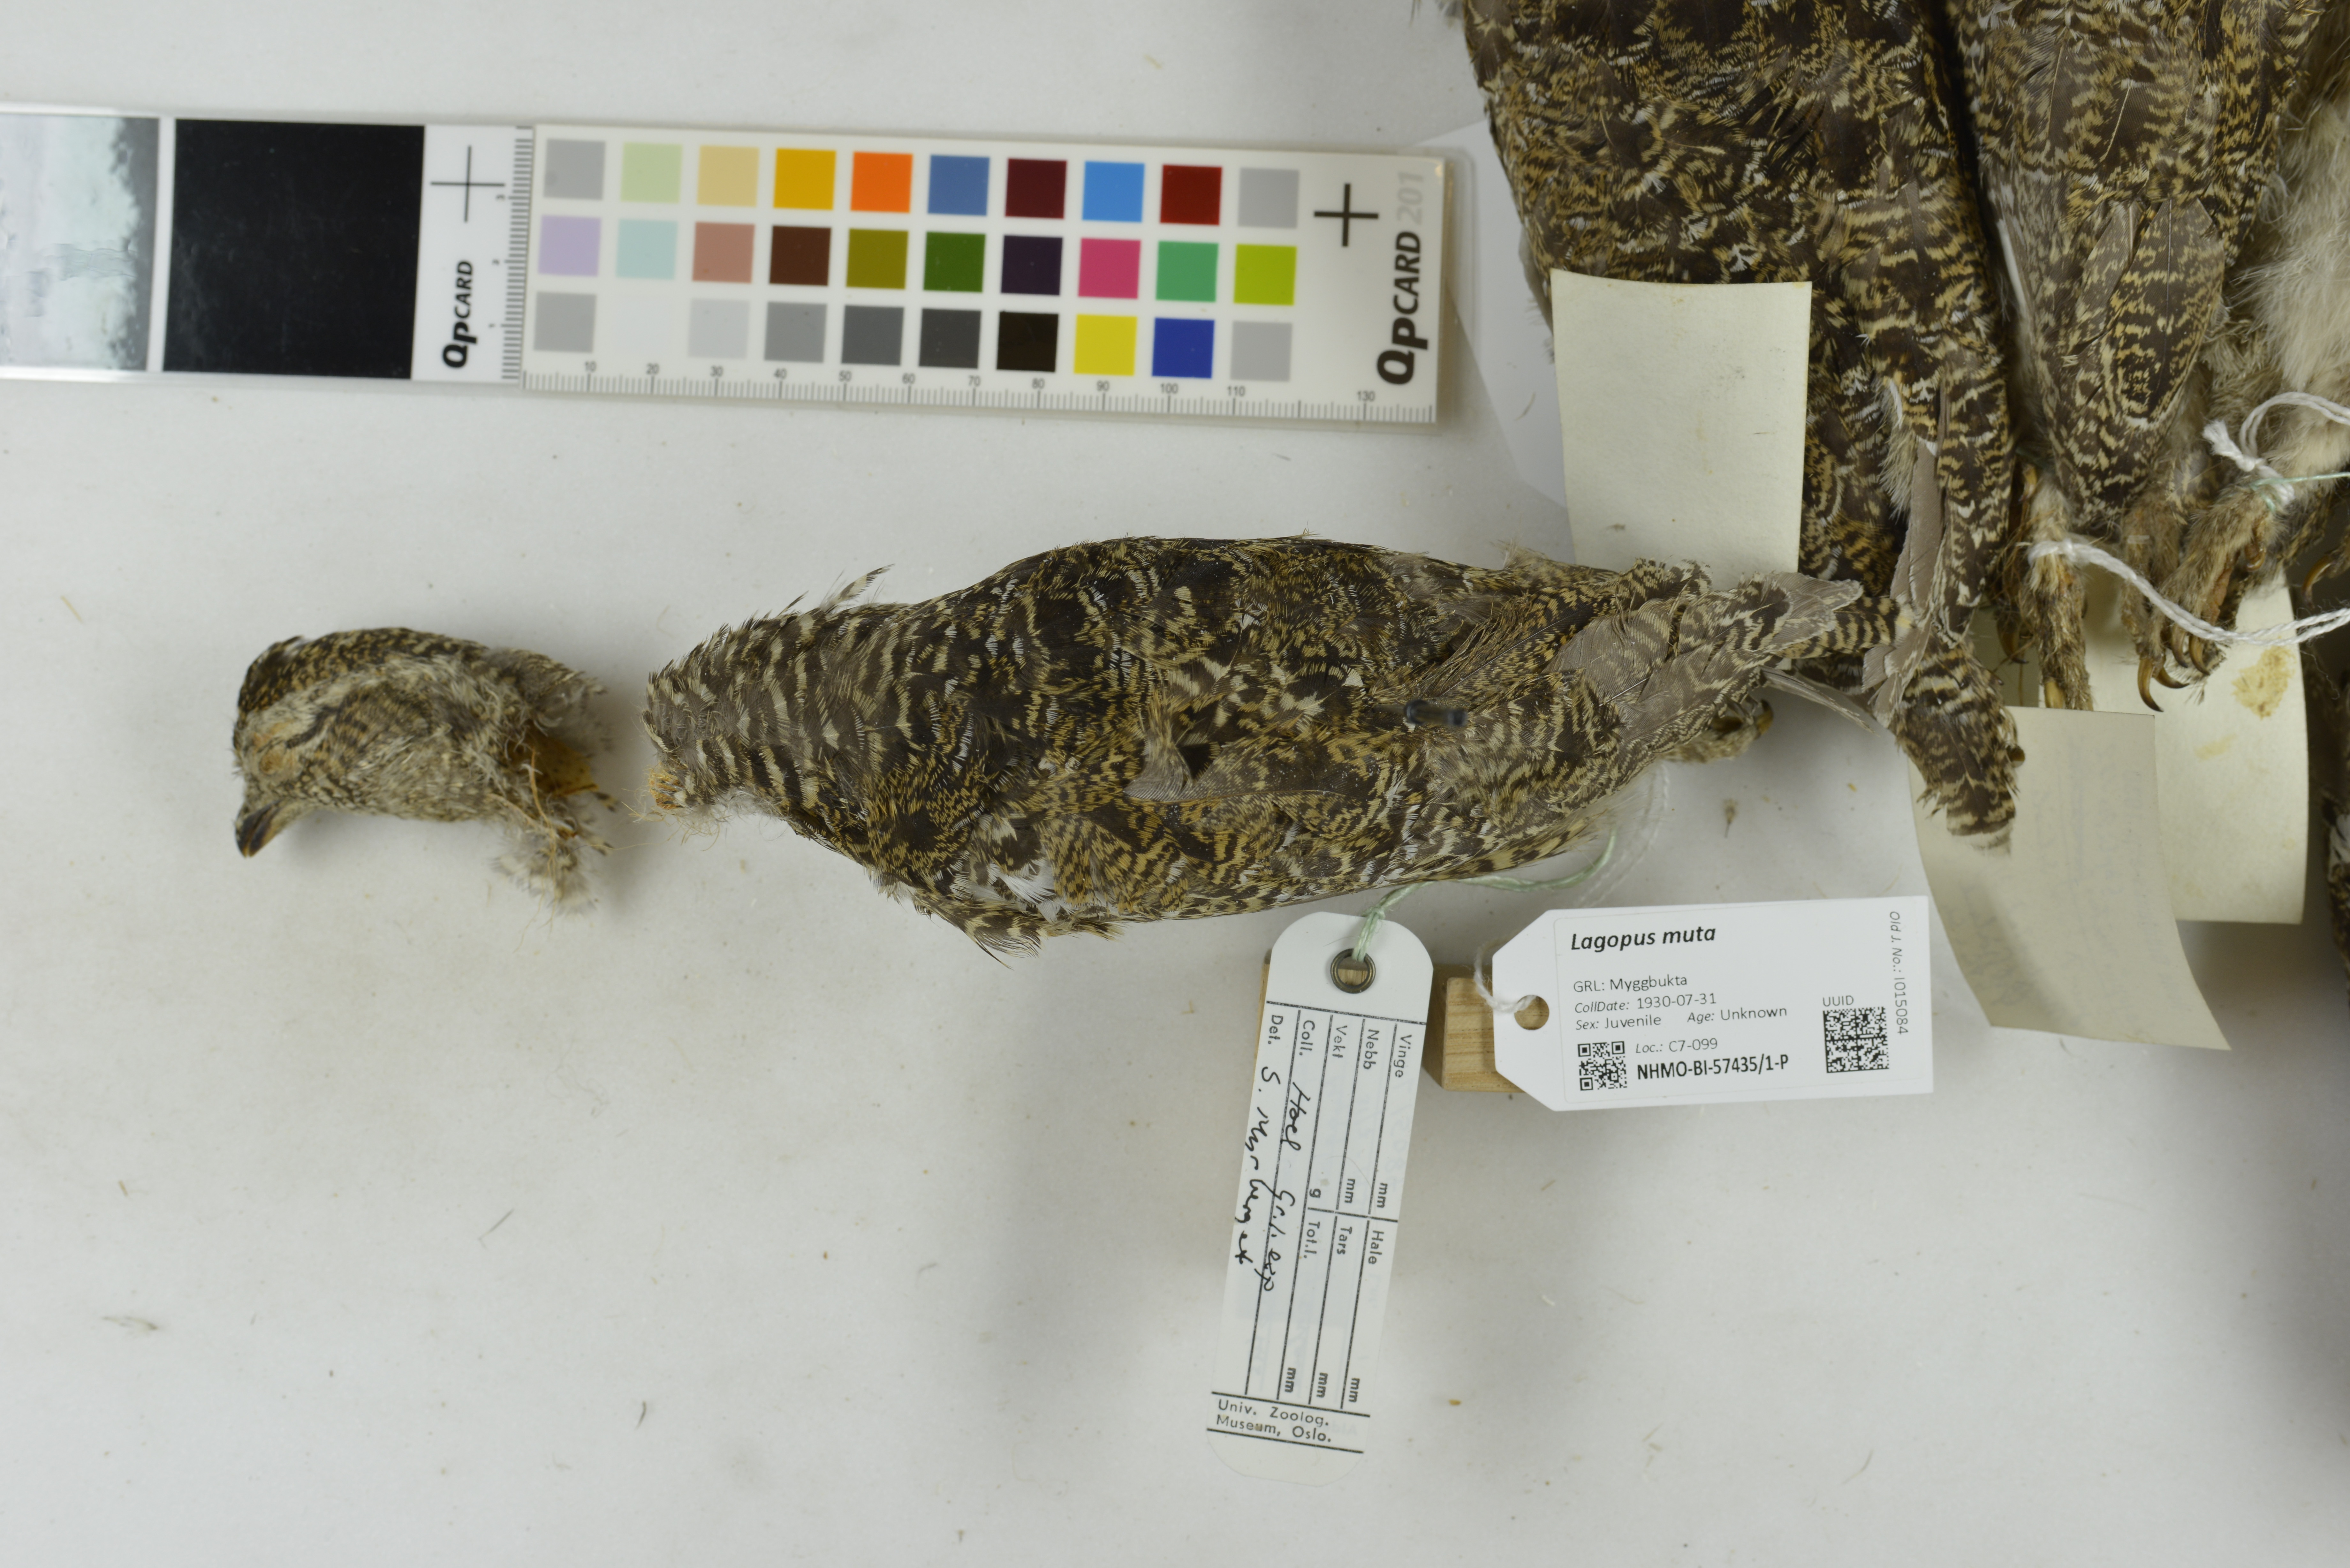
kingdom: Animalia
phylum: Chordata
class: Aves
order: Galliformes
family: Phasianidae
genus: Lagopus
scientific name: Lagopus muta
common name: Rock ptarmigan
